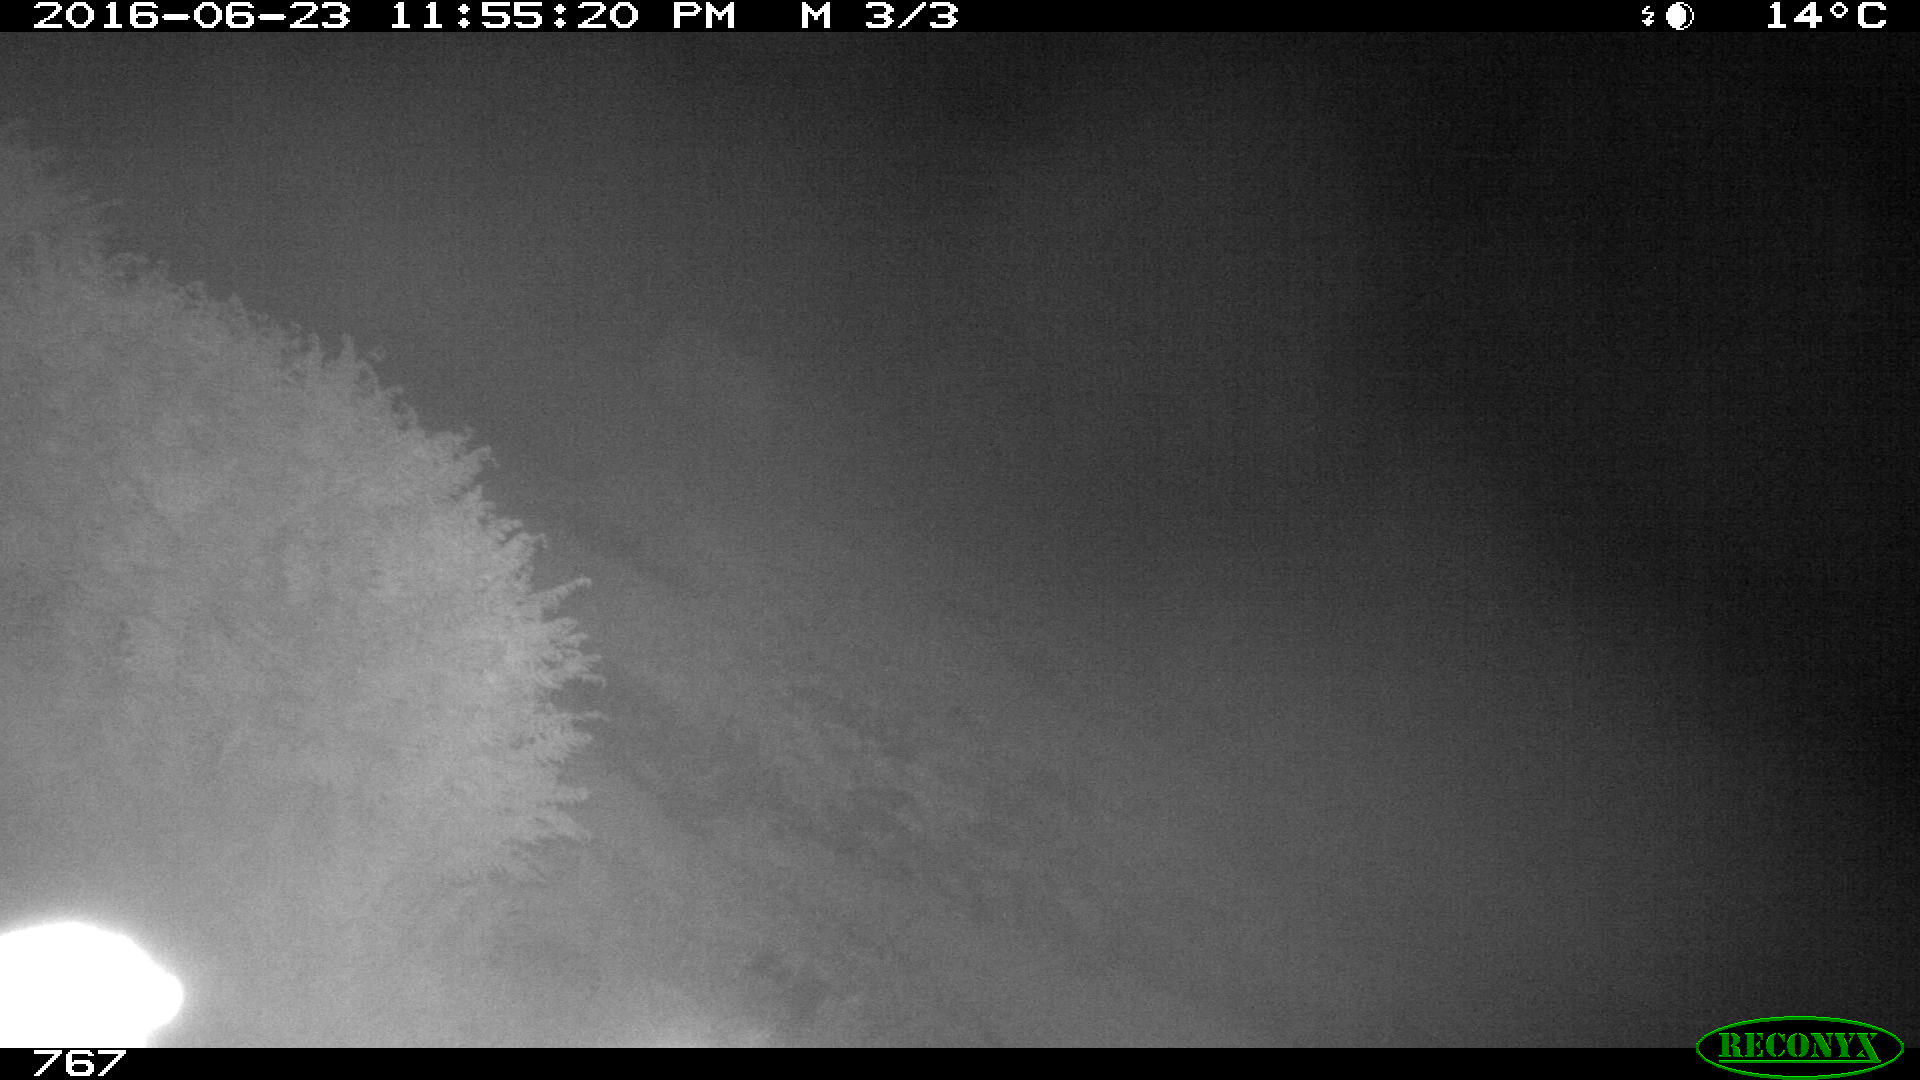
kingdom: Animalia
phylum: Chordata
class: Mammalia
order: Perissodactyla
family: Equidae
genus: Equus
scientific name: Equus caballus
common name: Horse
